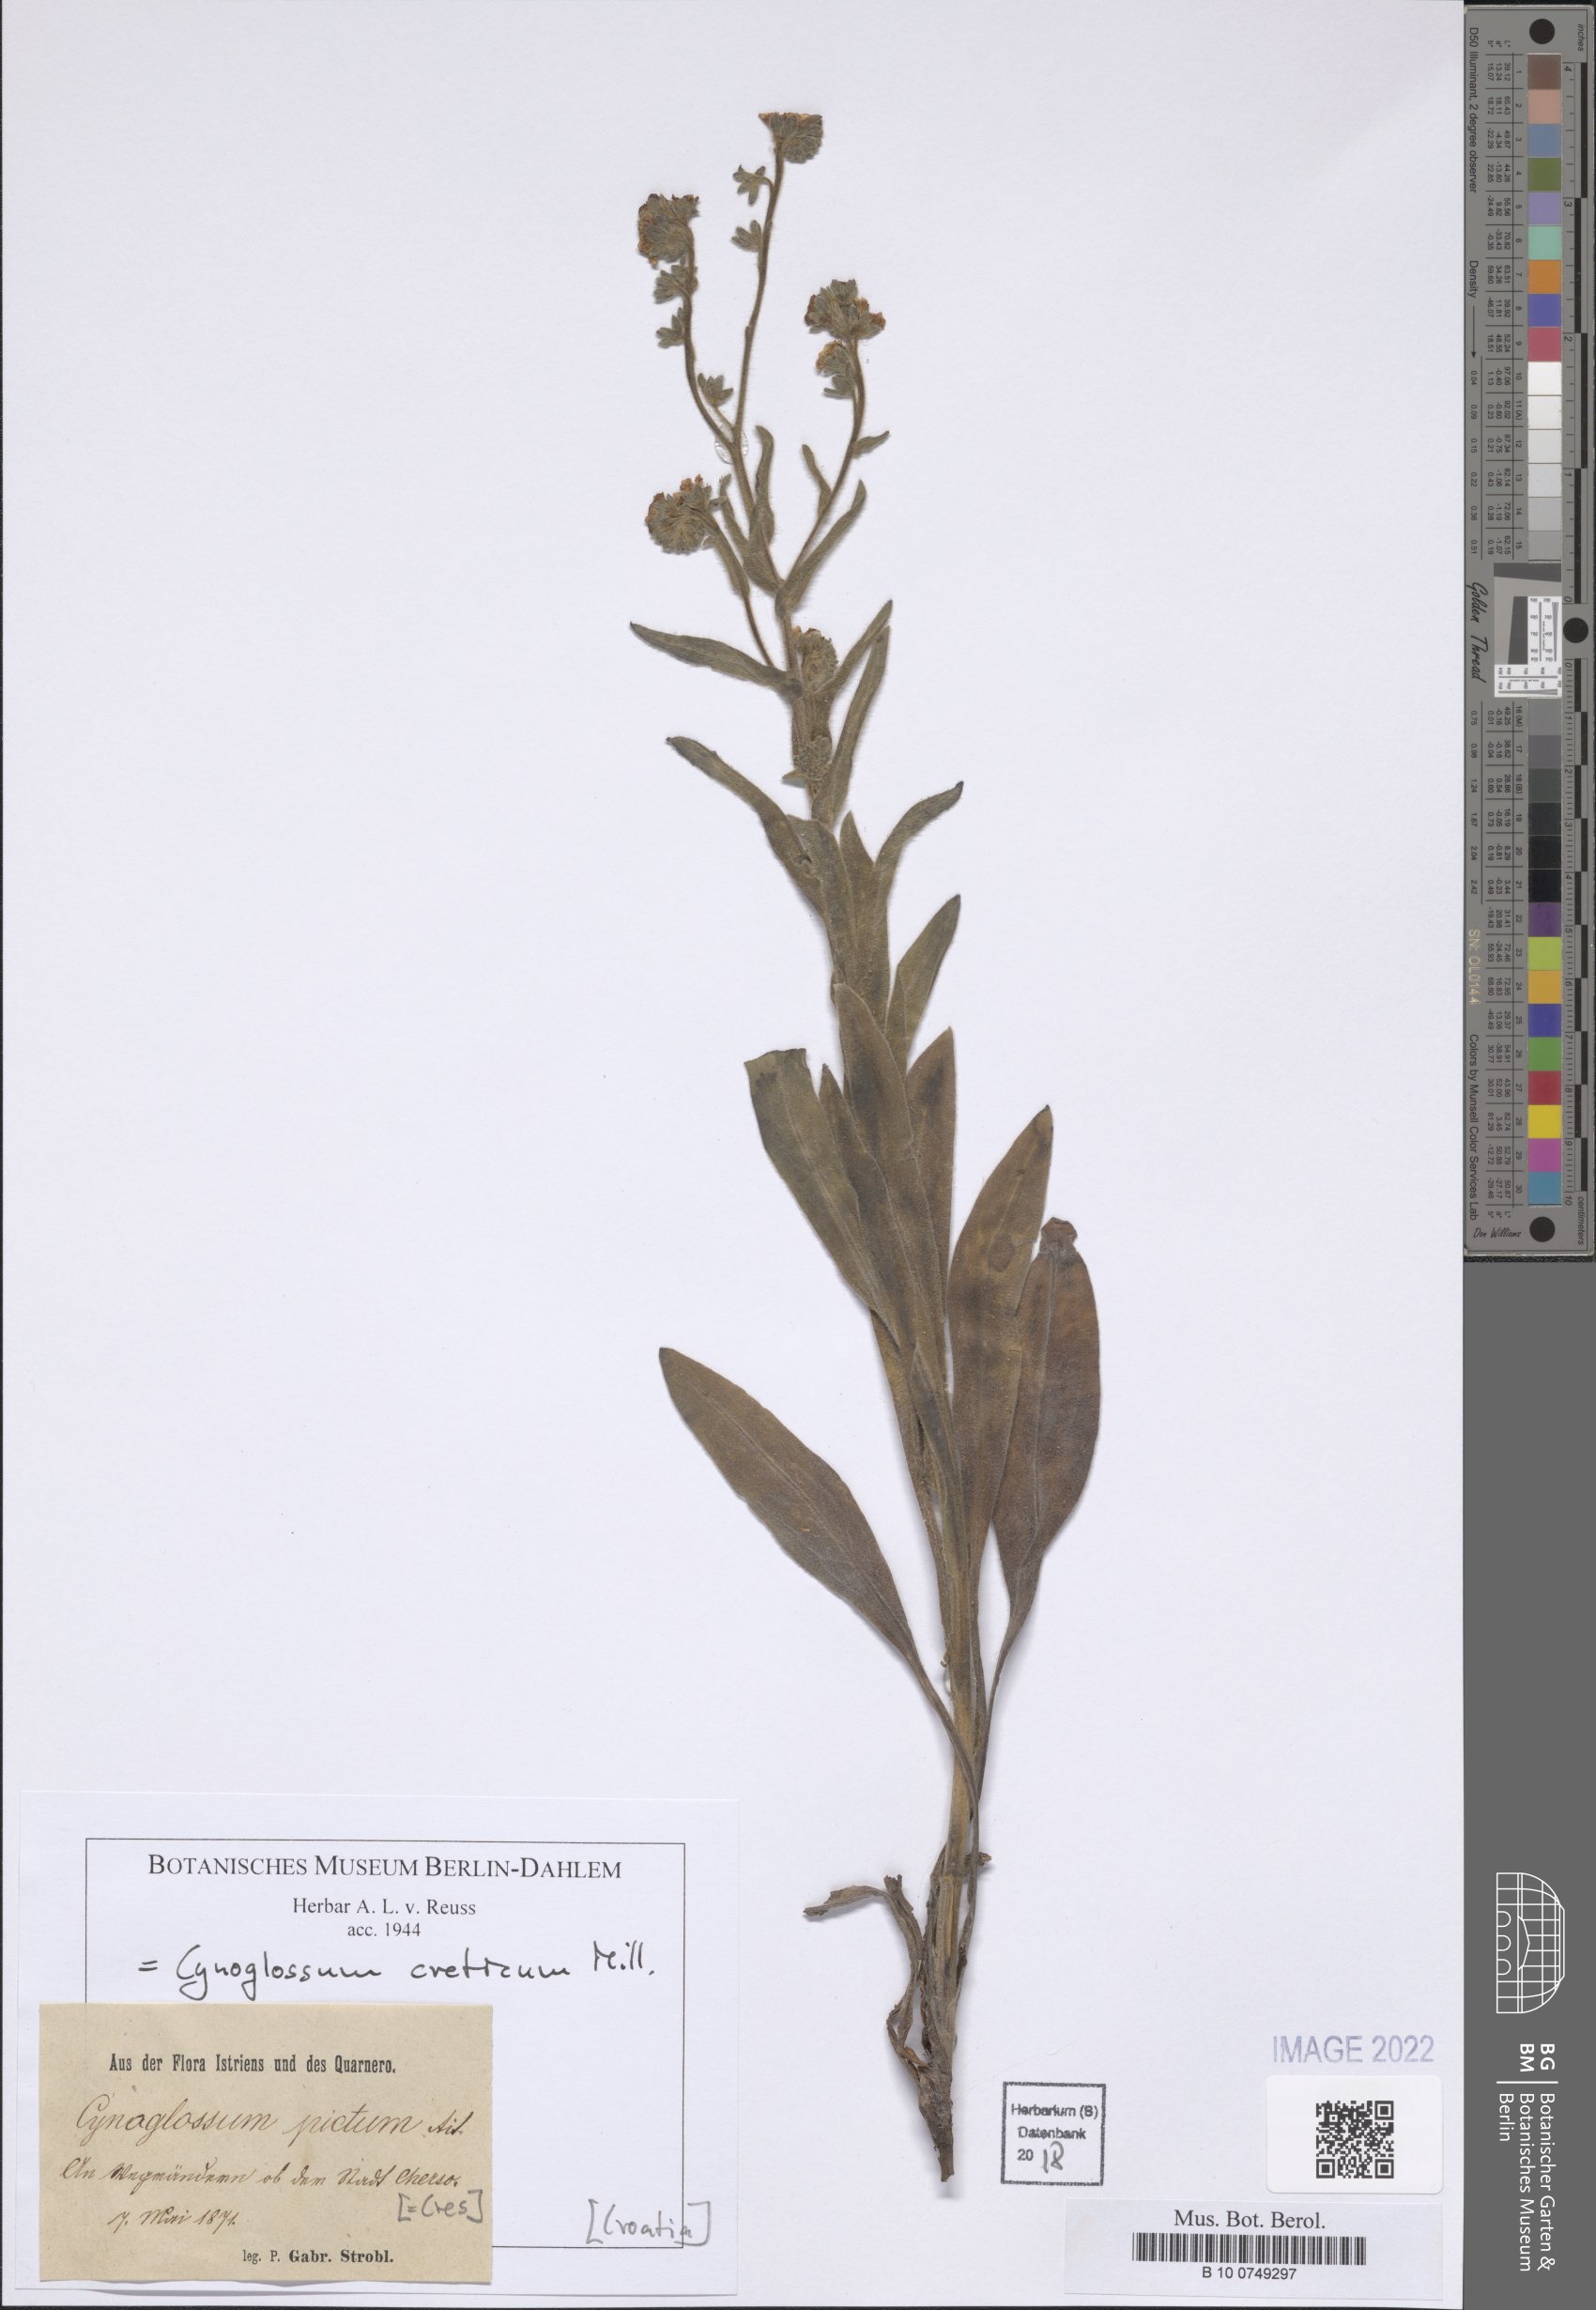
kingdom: Plantae
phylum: Tracheophyta
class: Magnoliopsida
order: Boraginales
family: Boraginaceae
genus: Cynoglossum
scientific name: Cynoglossum creticum
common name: Blue hound's tongue
